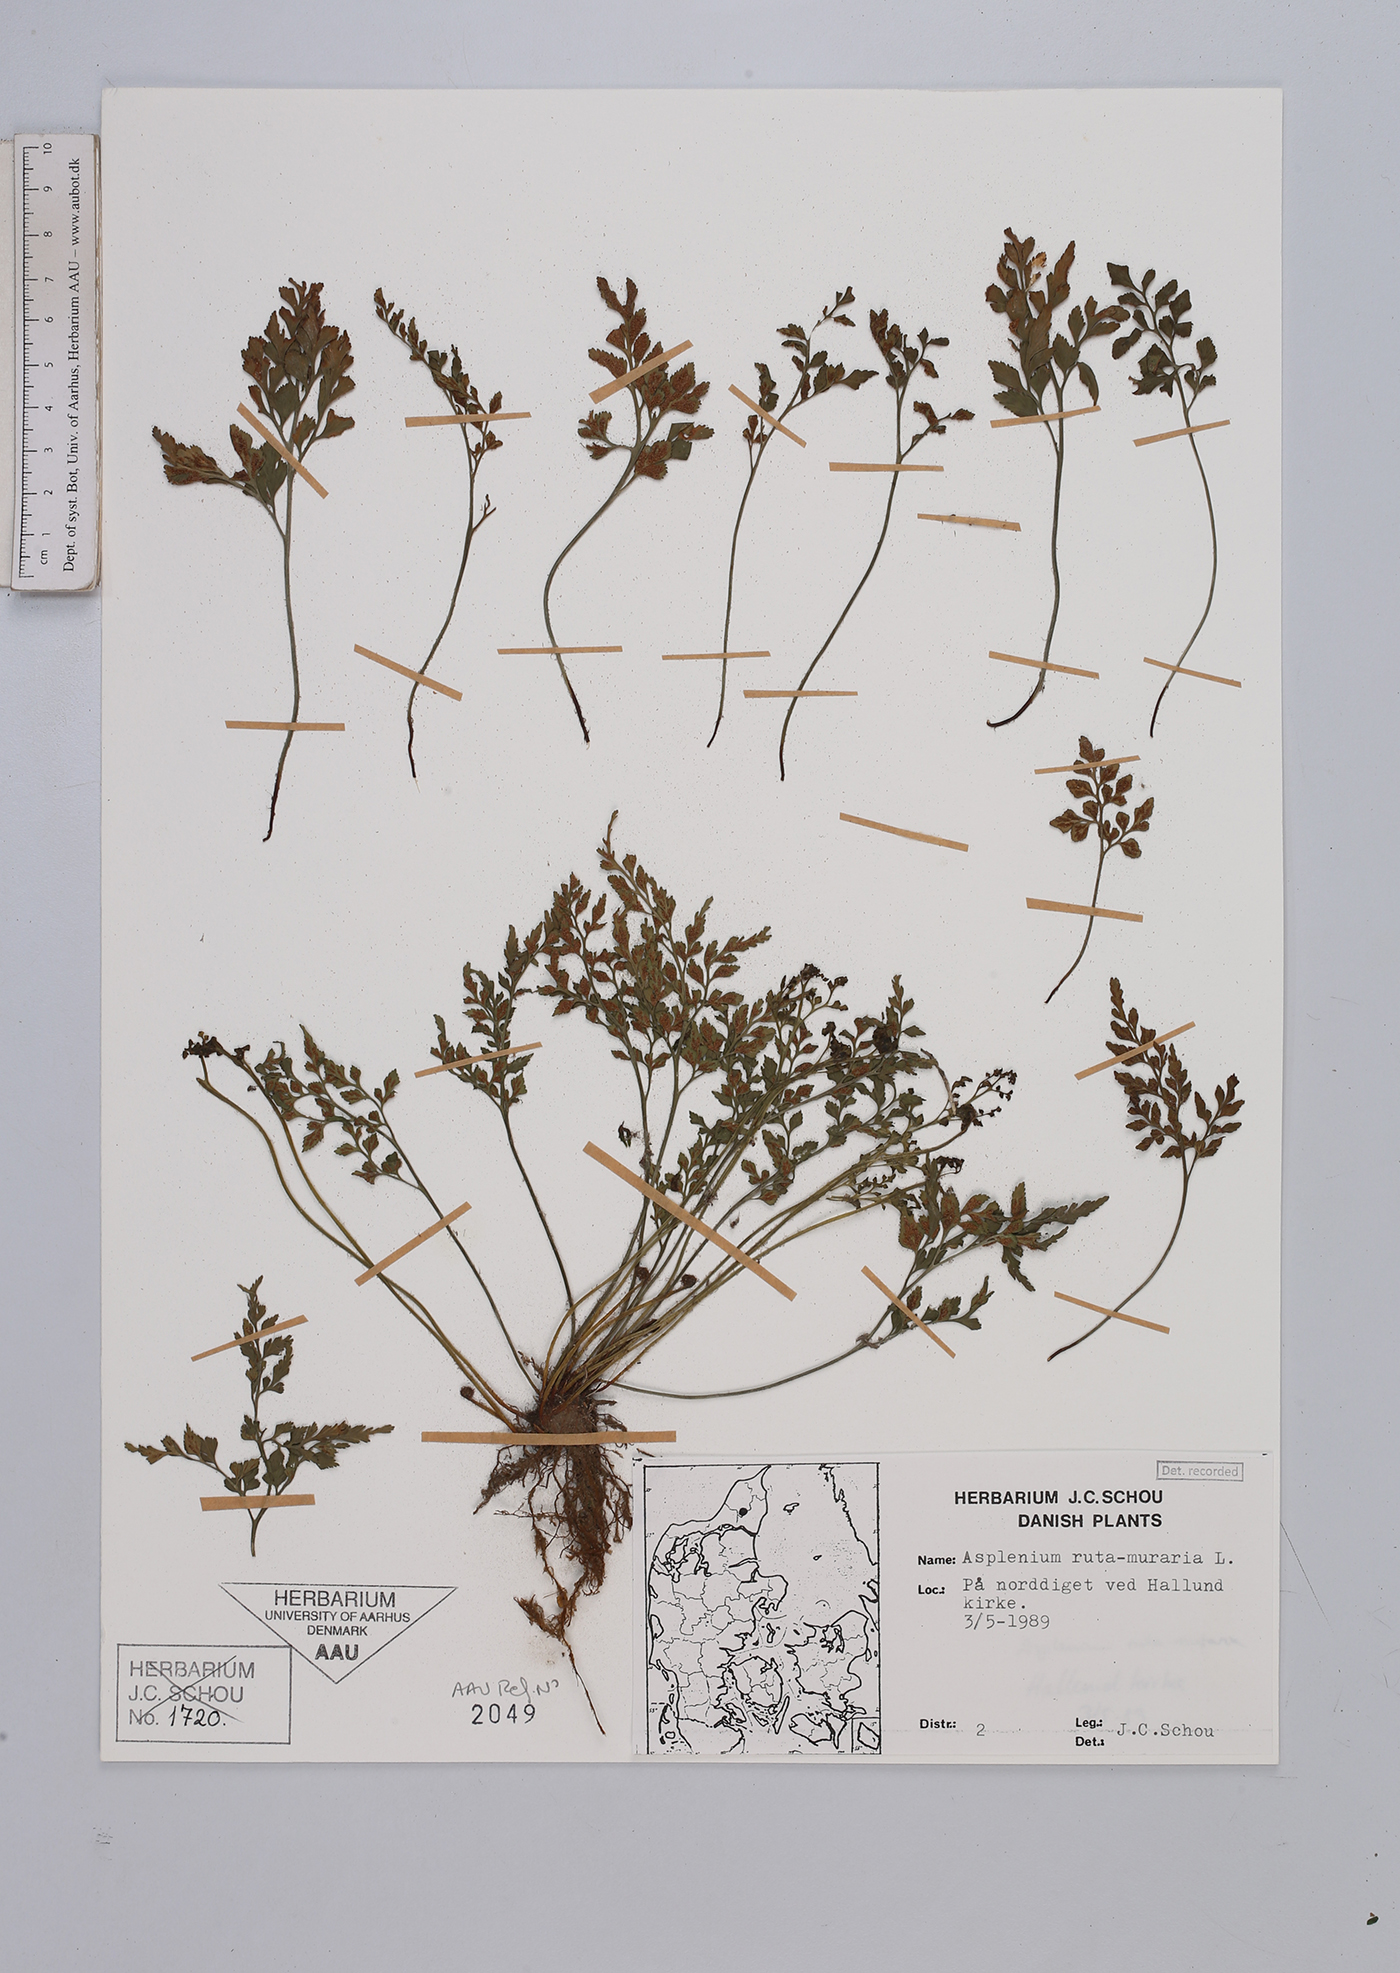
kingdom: Plantae
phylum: Tracheophyta
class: Polypodiopsida
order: Polypodiales
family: Aspleniaceae
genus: Asplenium
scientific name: Asplenium ruta-muraria
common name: Wall-rue
